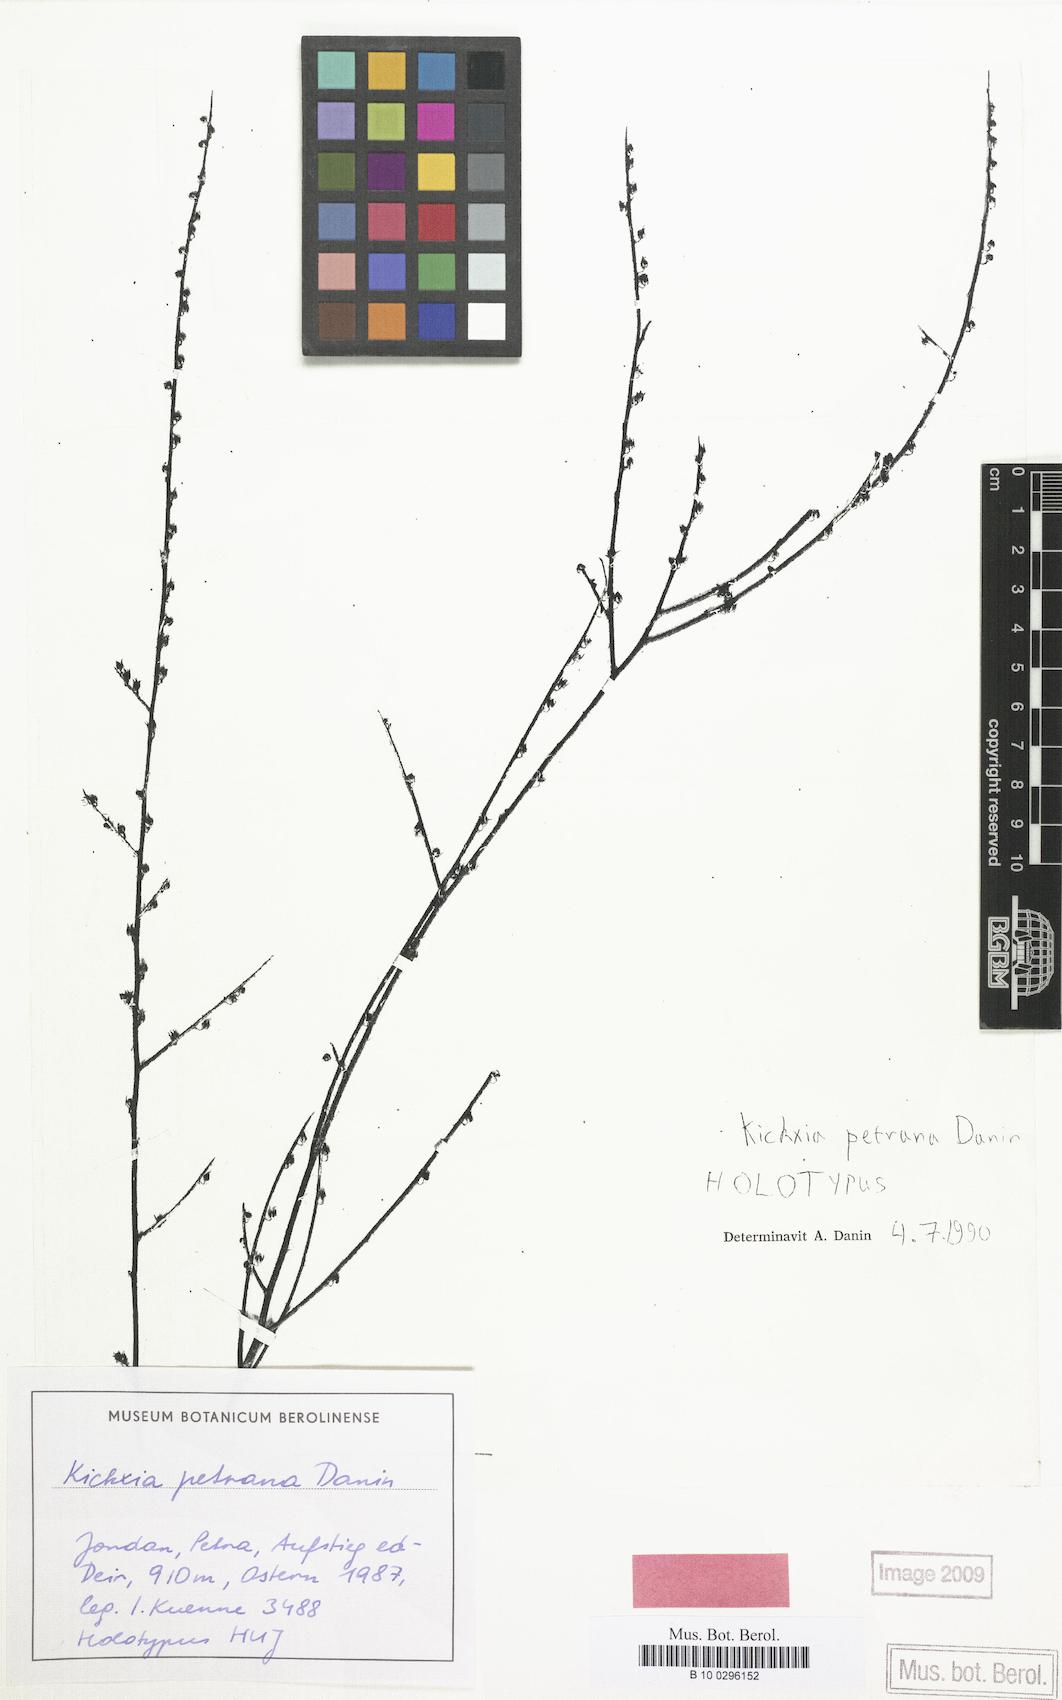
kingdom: Plantae
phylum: Tracheophyta
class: Magnoliopsida
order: Lamiales
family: Plantaginaceae
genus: Nanorrhinum
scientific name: Nanorrhinum petranum
